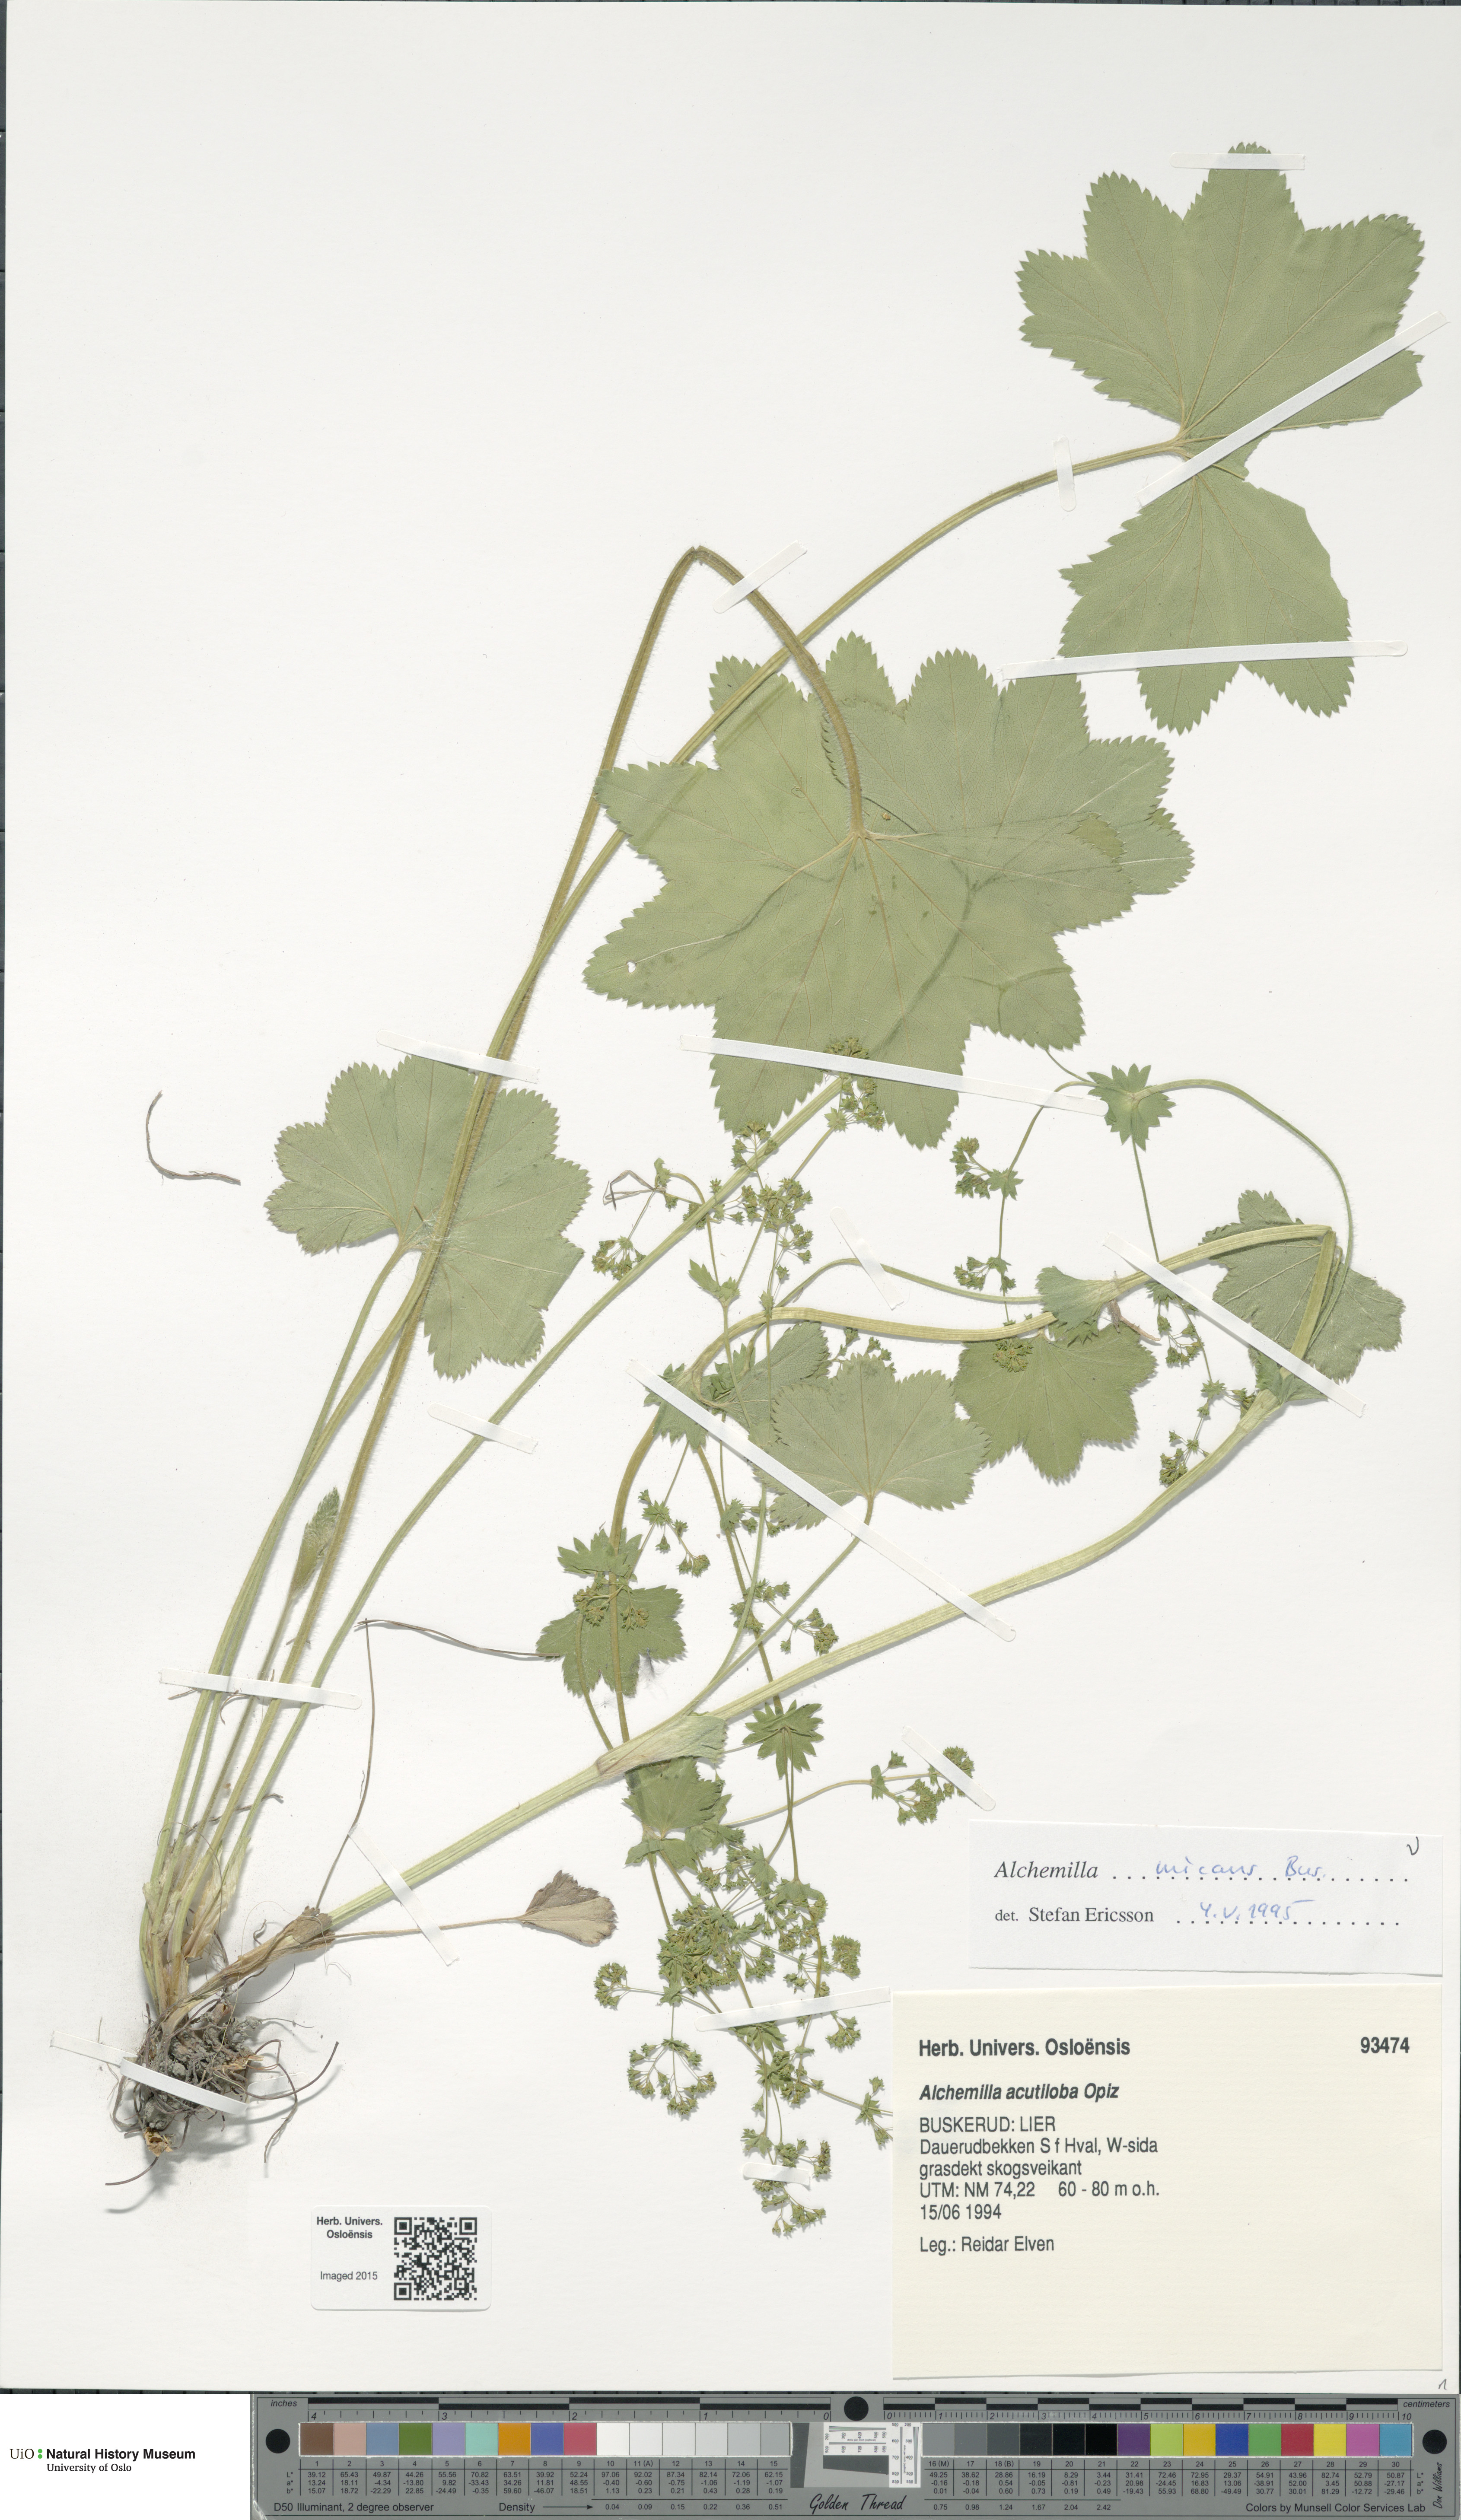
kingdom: Plantae
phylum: Tracheophyta
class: Magnoliopsida
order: Rosales
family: Rosaceae
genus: Alchemilla
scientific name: Alchemilla micans
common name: Gleaming lady's mantle
